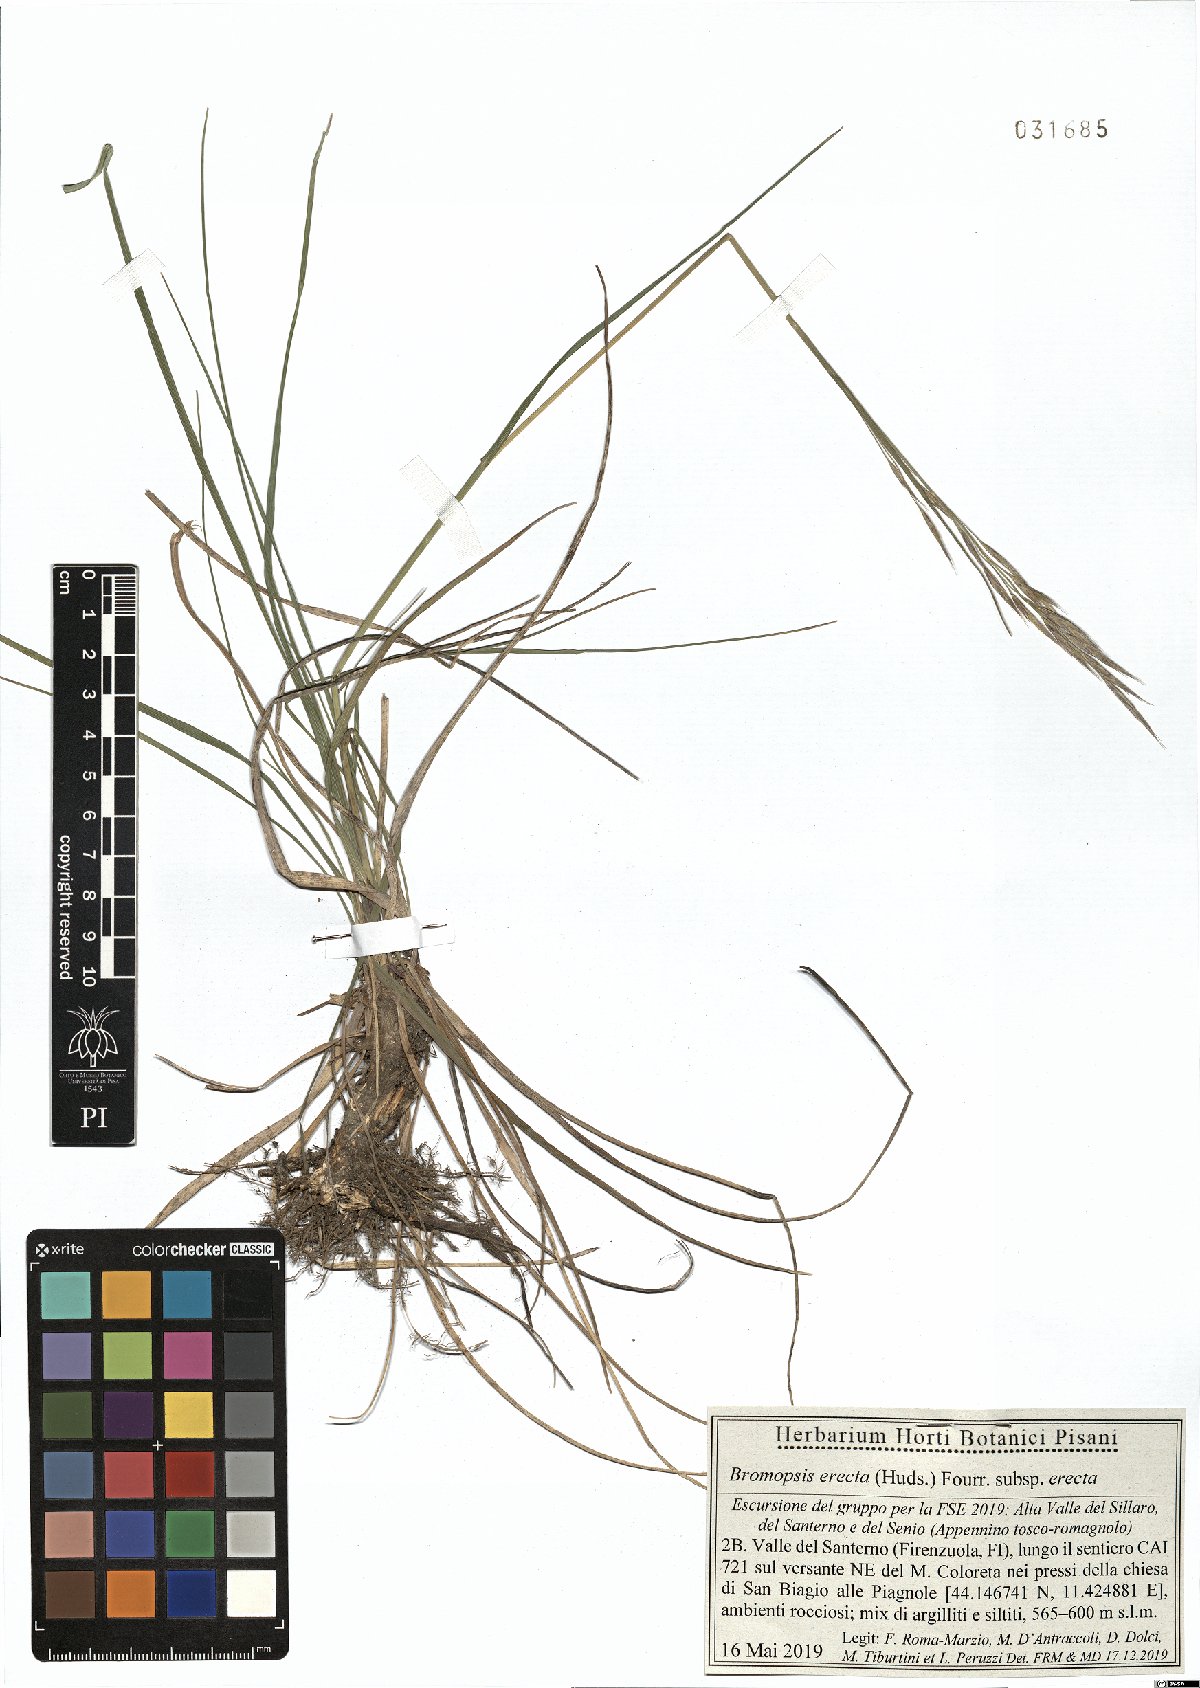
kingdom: Plantae
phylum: Tracheophyta
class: Liliopsida
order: Poales
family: Poaceae
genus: Bromus
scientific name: Bromus erectus
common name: Erect brome
